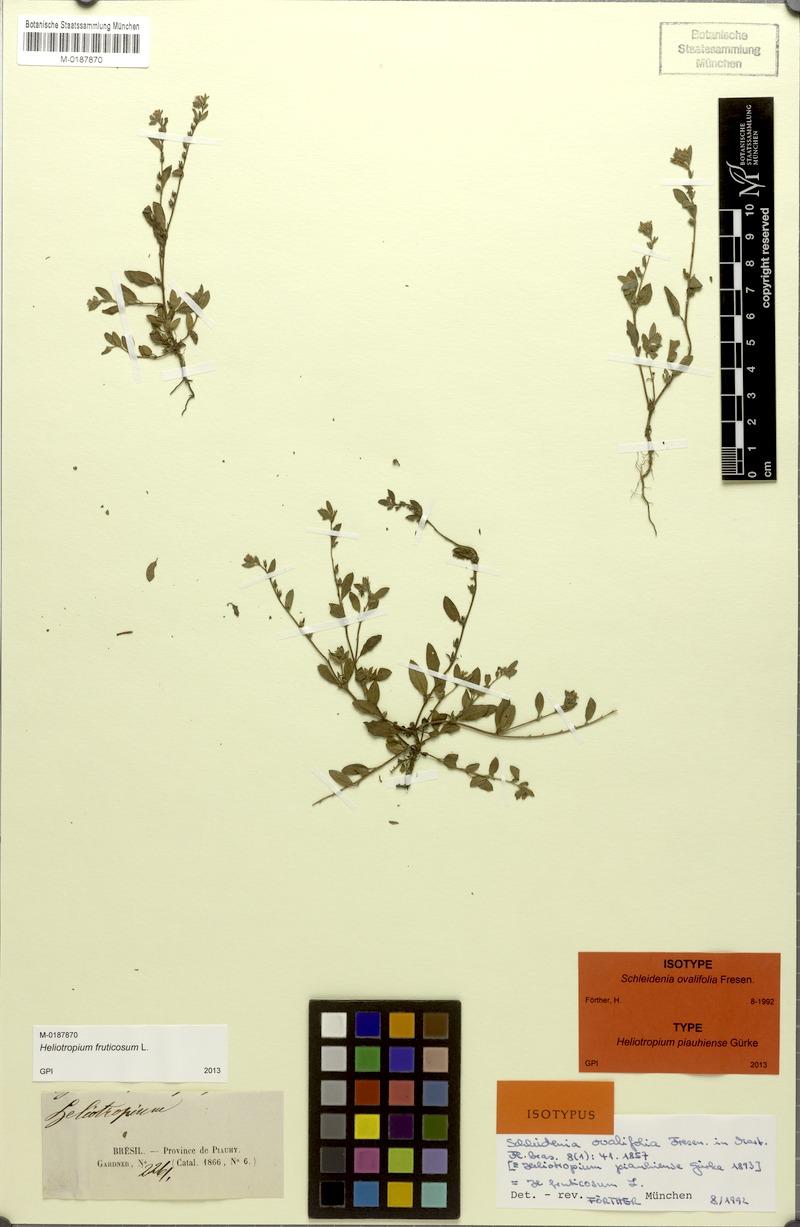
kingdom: Plantae
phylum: Tracheophyta
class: Magnoliopsida
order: Boraginales
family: Heliotropiaceae
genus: Euploca
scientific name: Euploca fruticosa
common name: Key west heliotrope
